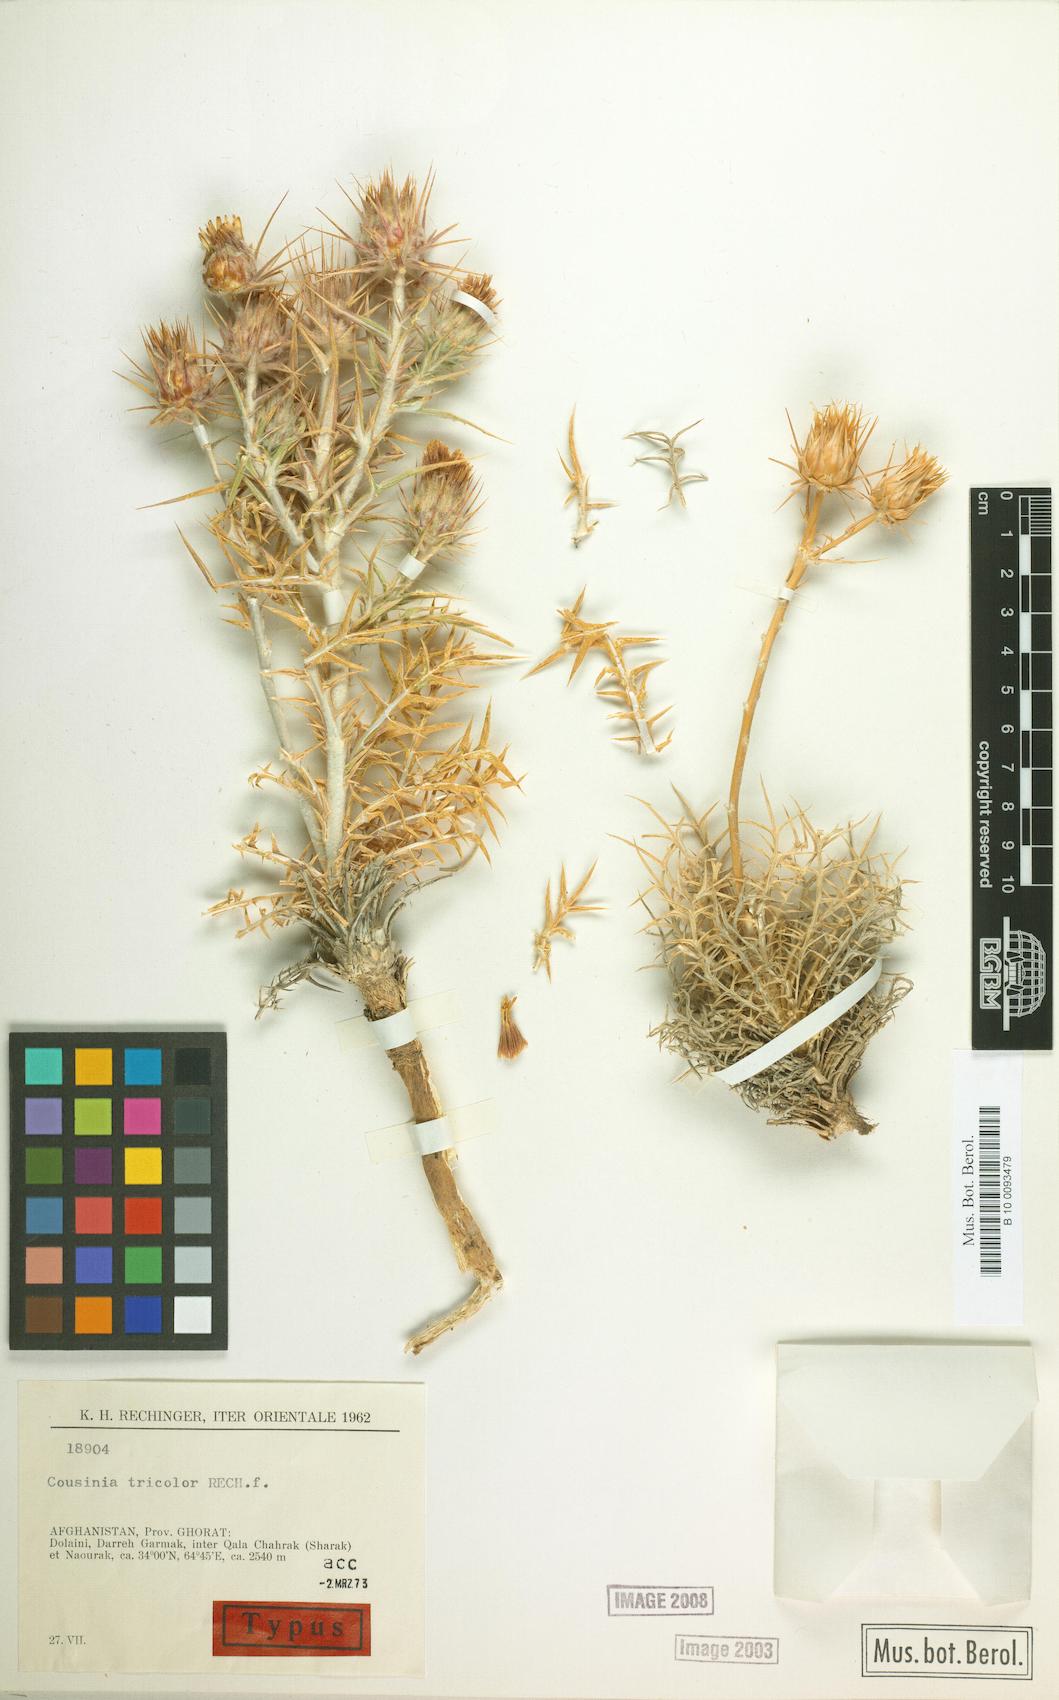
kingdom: Plantae
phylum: Tracheophyta
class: Magnoliopsida
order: Asterales
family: Asteraceae
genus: Cousinia
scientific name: Cousinia tricolor
